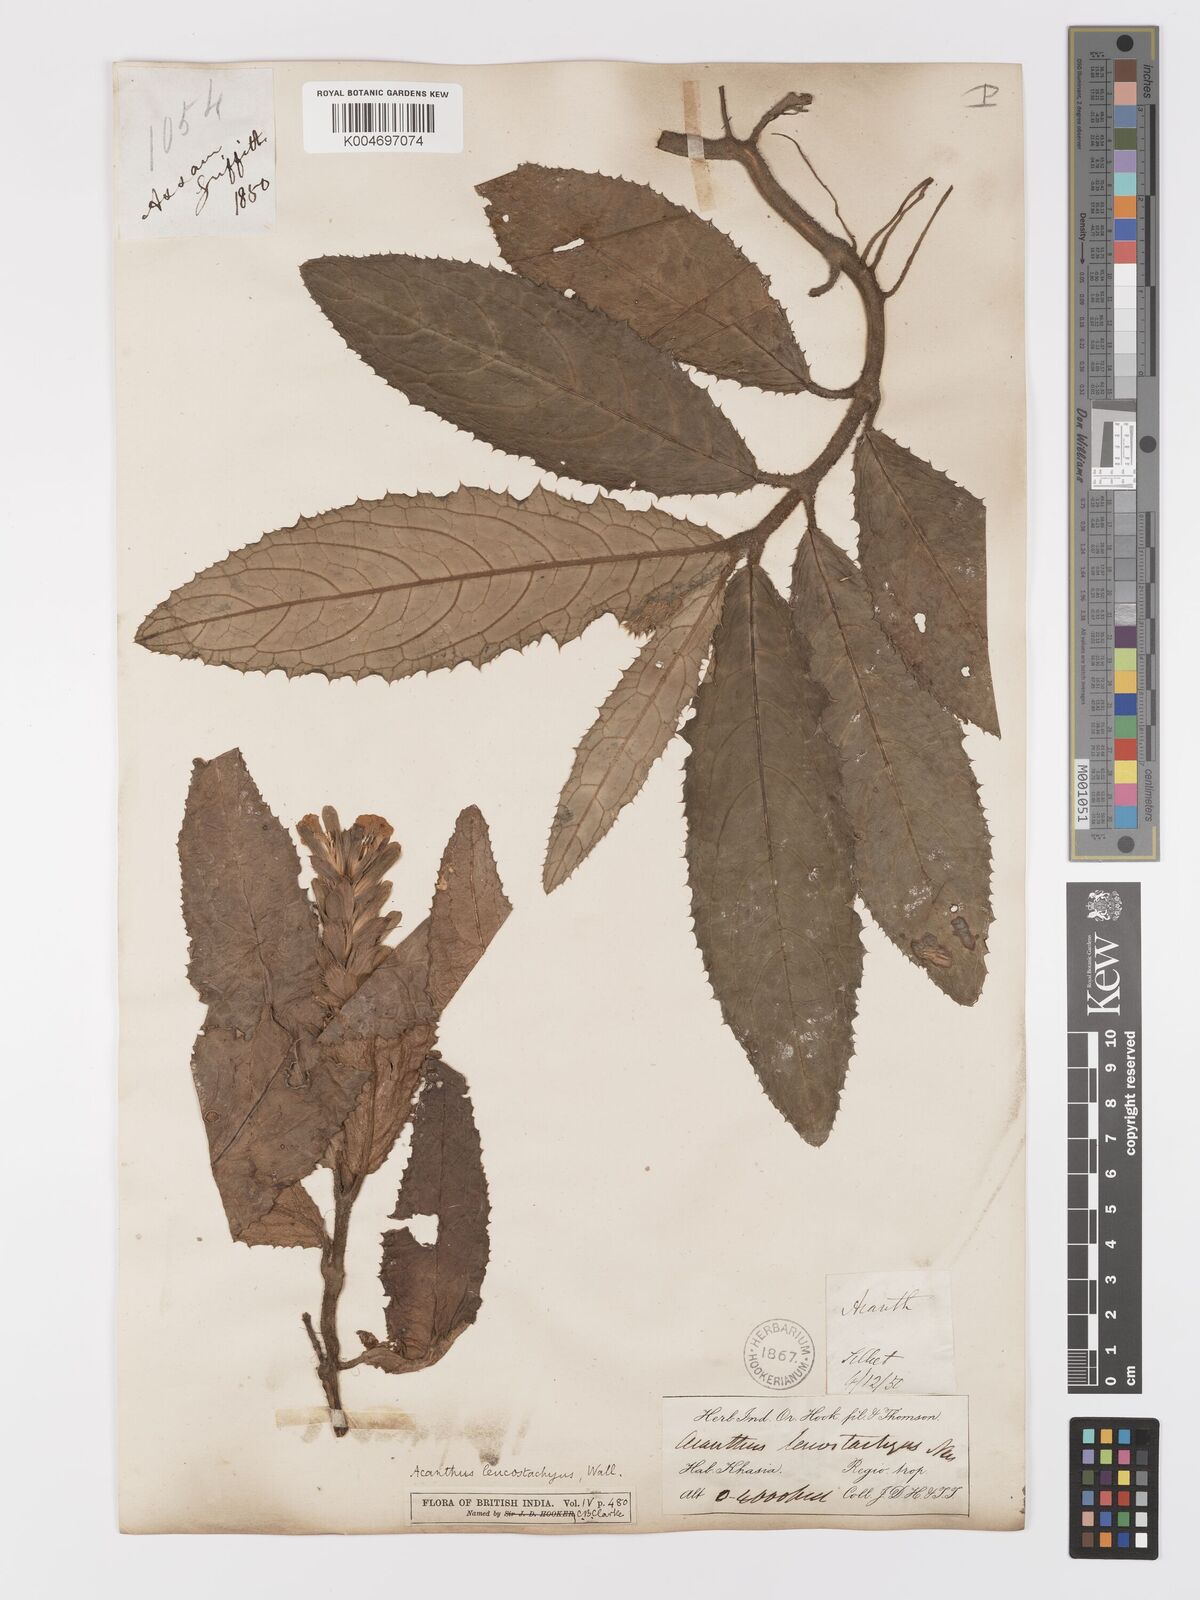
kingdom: Plantae
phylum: Tracheophyta
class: Magnoliopsida
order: Lamiales
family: Acanthaceae
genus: Acanthus
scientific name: Acanthus leucostachyus
